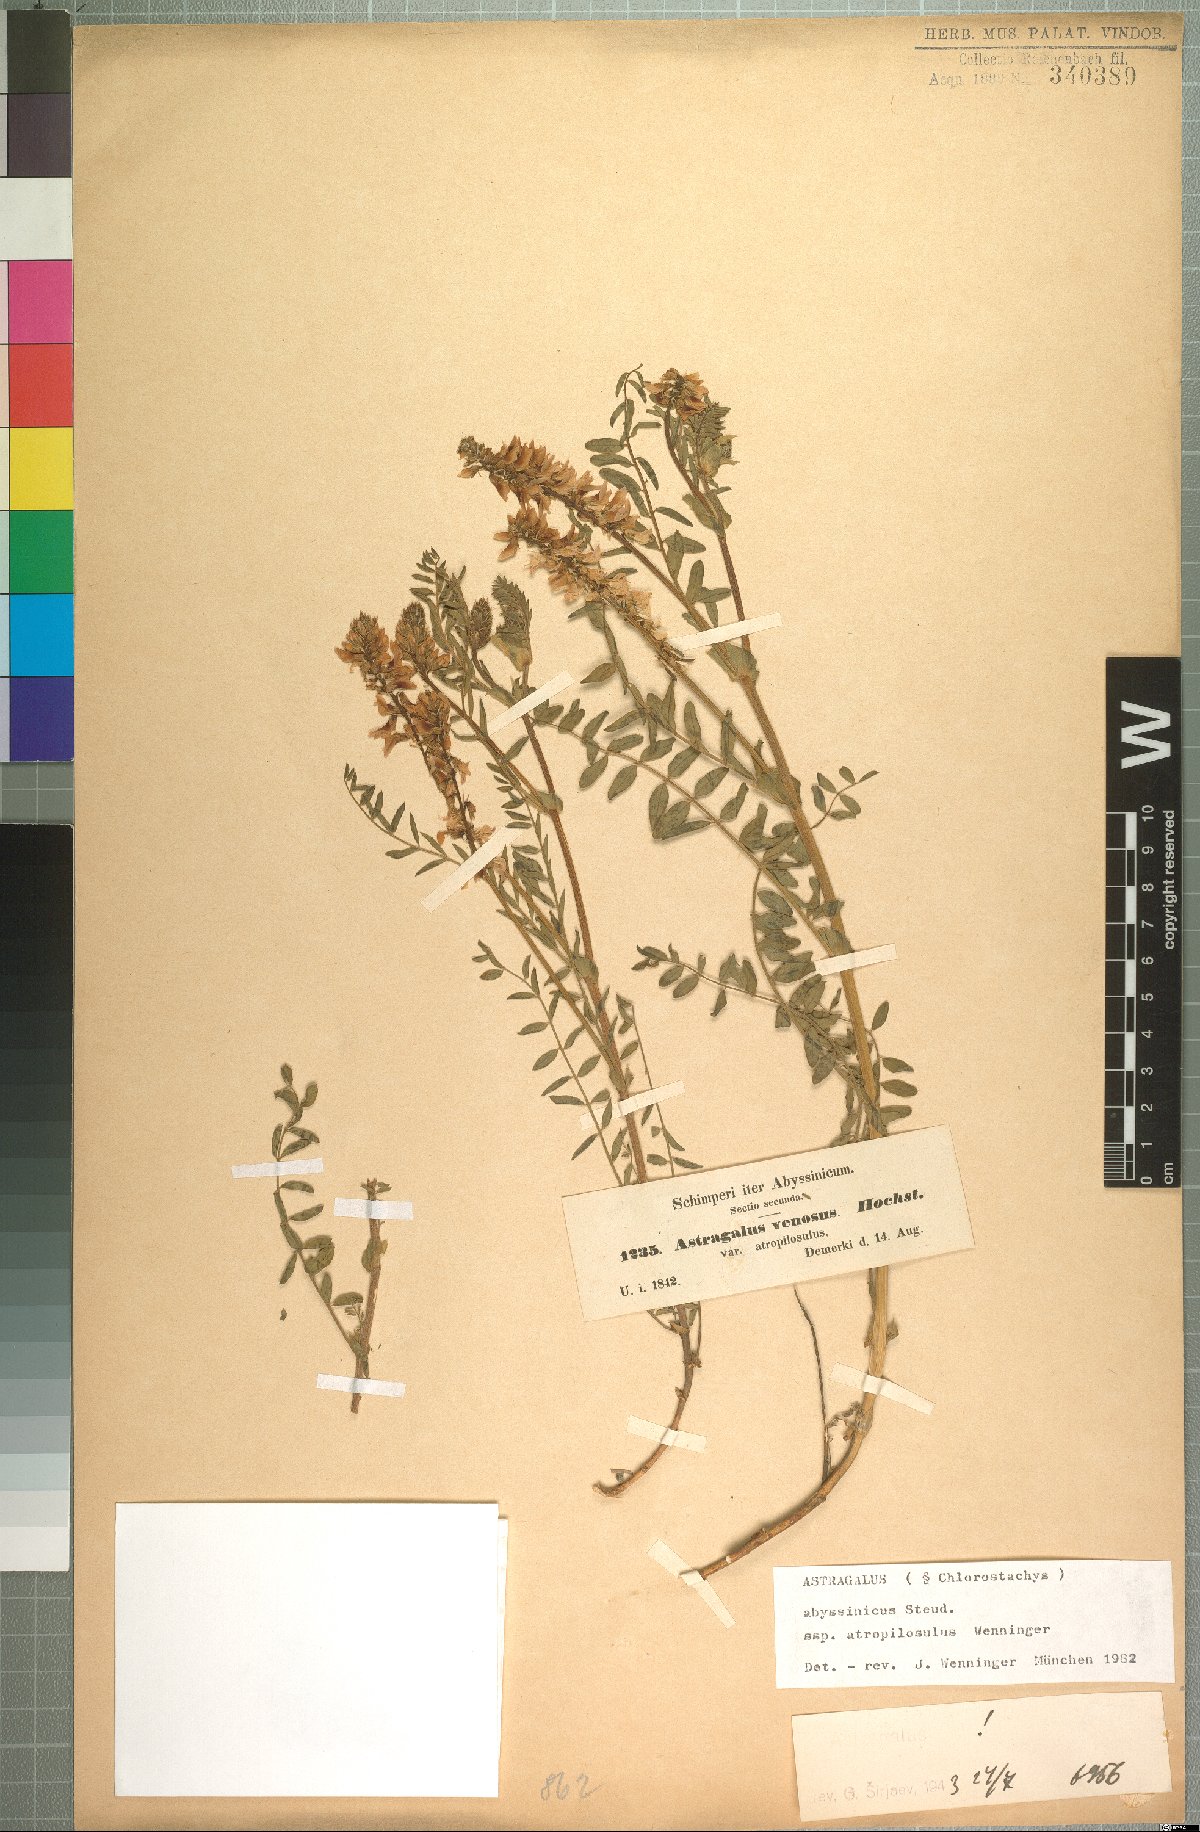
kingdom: Plantae
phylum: Tracheophyta
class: Magnoliopsida
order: Fabales
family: Fabaceae
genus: Astragalus
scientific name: Astragalus atropilosulus
